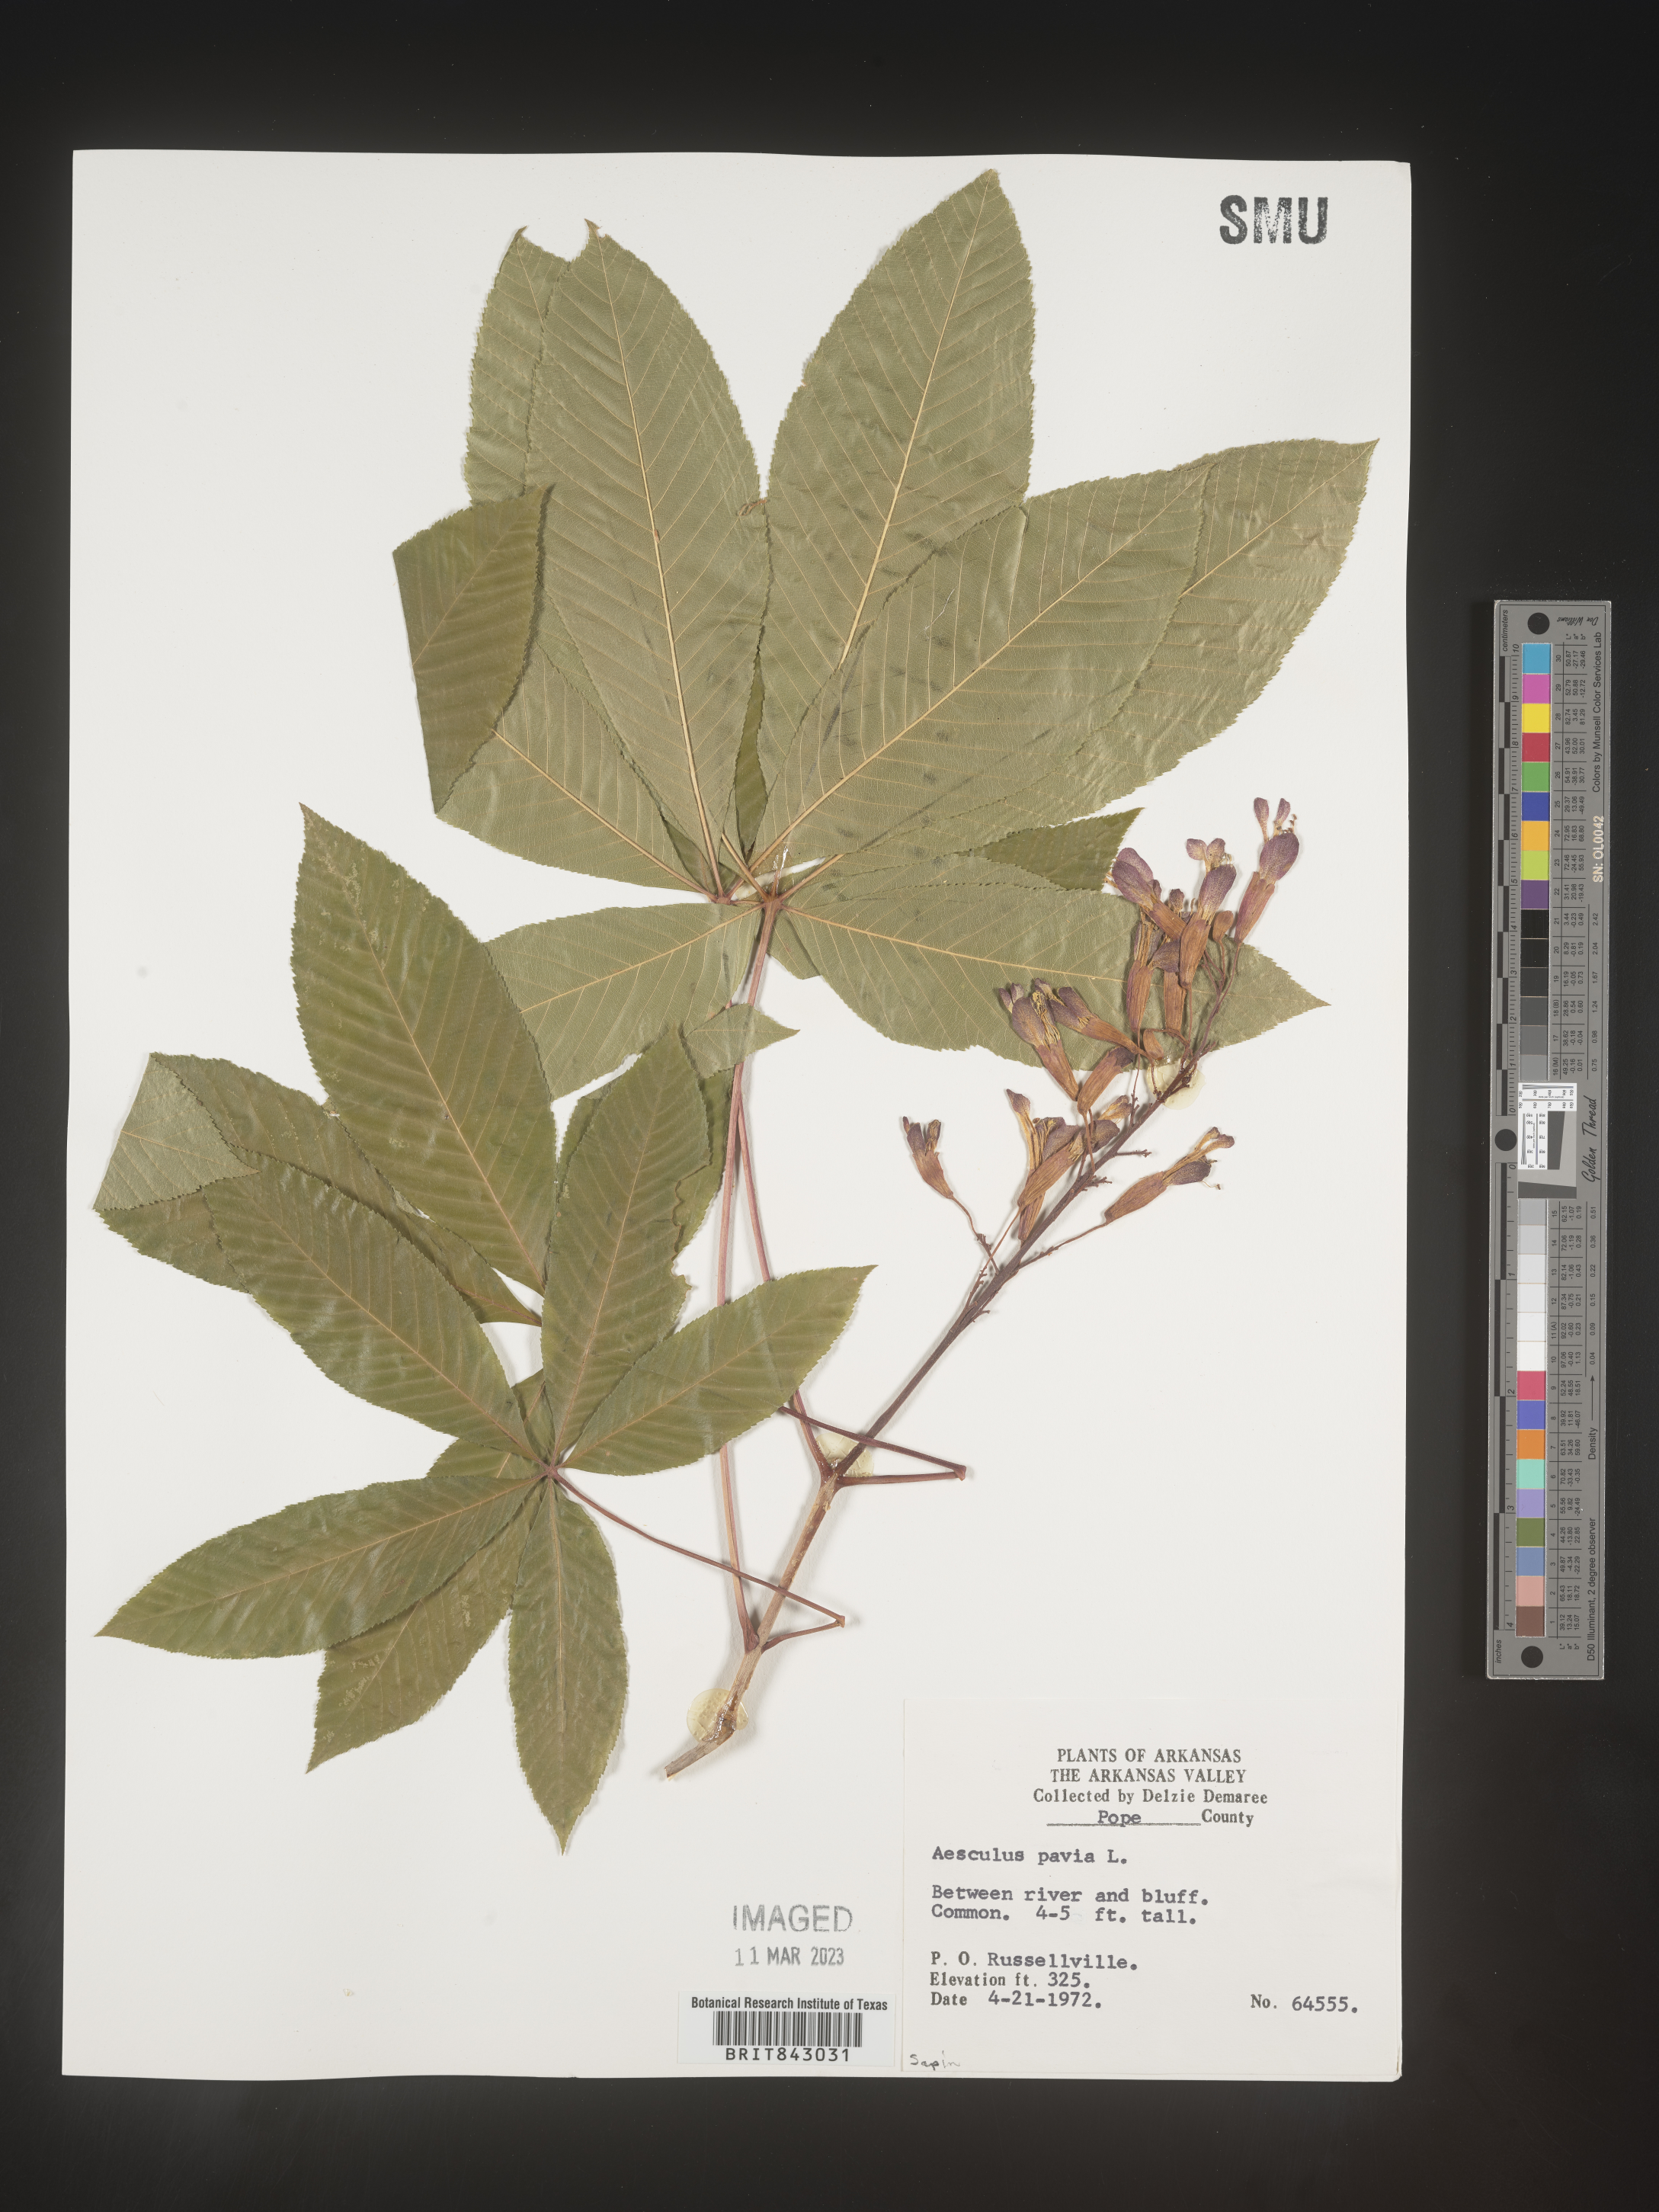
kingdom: Plantae
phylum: Tracheophyta
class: Magnoliopsida
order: Sapindales
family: Sapindaceae
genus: Aesculus
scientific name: Aesculus pavia
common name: Red buckeye
